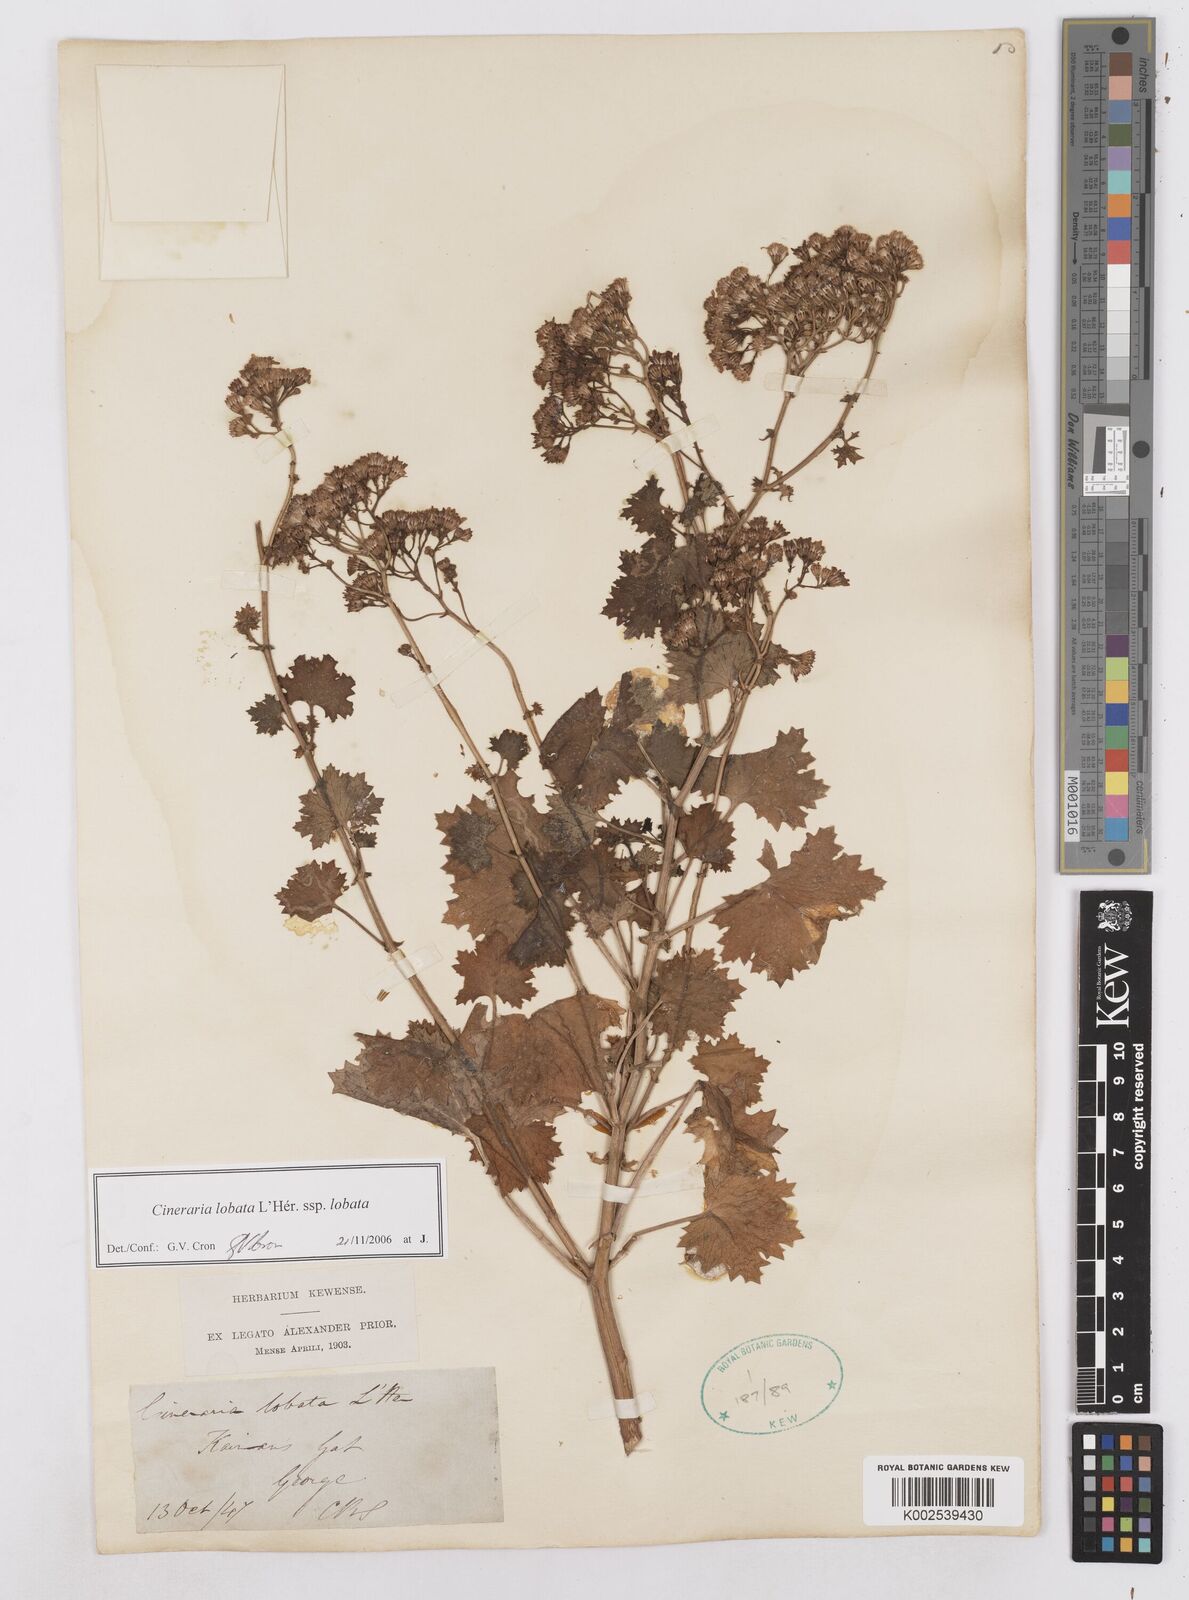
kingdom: Plantae
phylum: Tracheophyta
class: Magnoliopsida
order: Asterales
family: Asteraceae
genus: Cineraria
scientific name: Cineraria lobata
